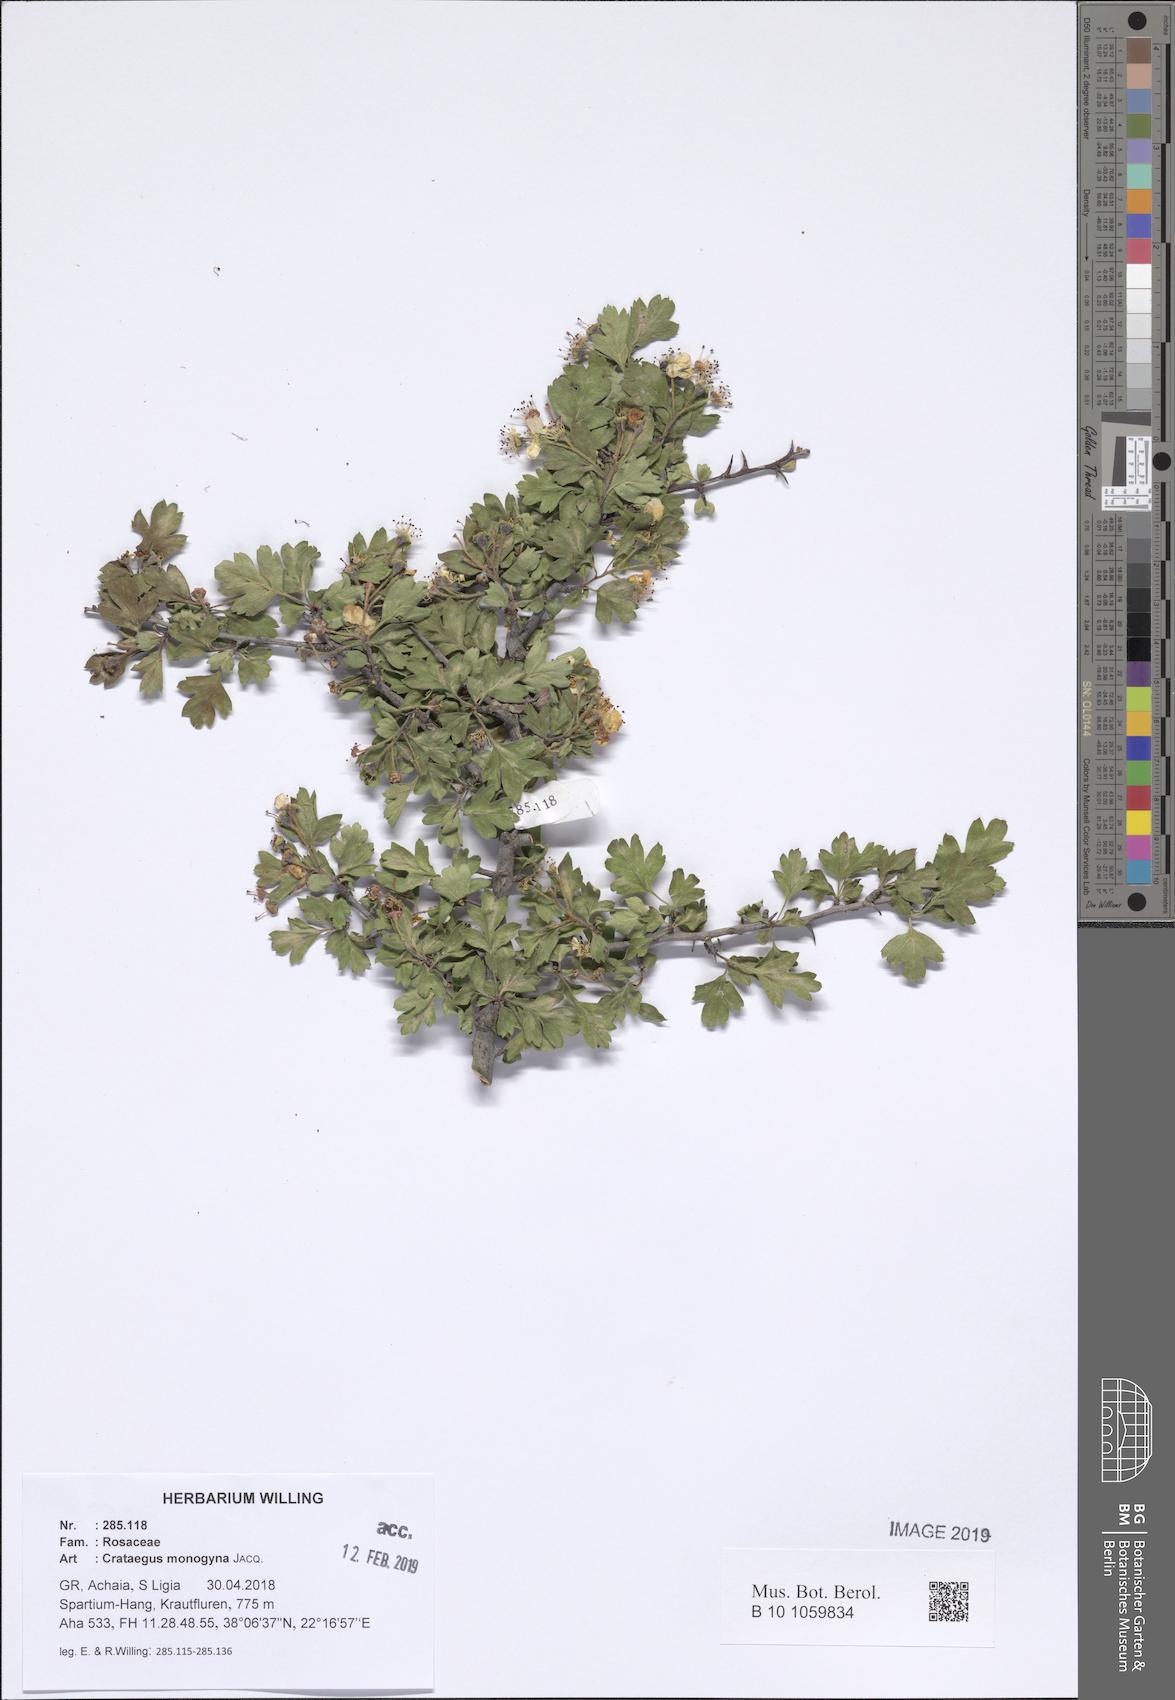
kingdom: Plantae
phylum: Tracheophyta
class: Magnoliopsida
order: Rosales
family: Rosaceae
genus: Crataegus
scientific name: Crataegus monogyna
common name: Hawthorn
